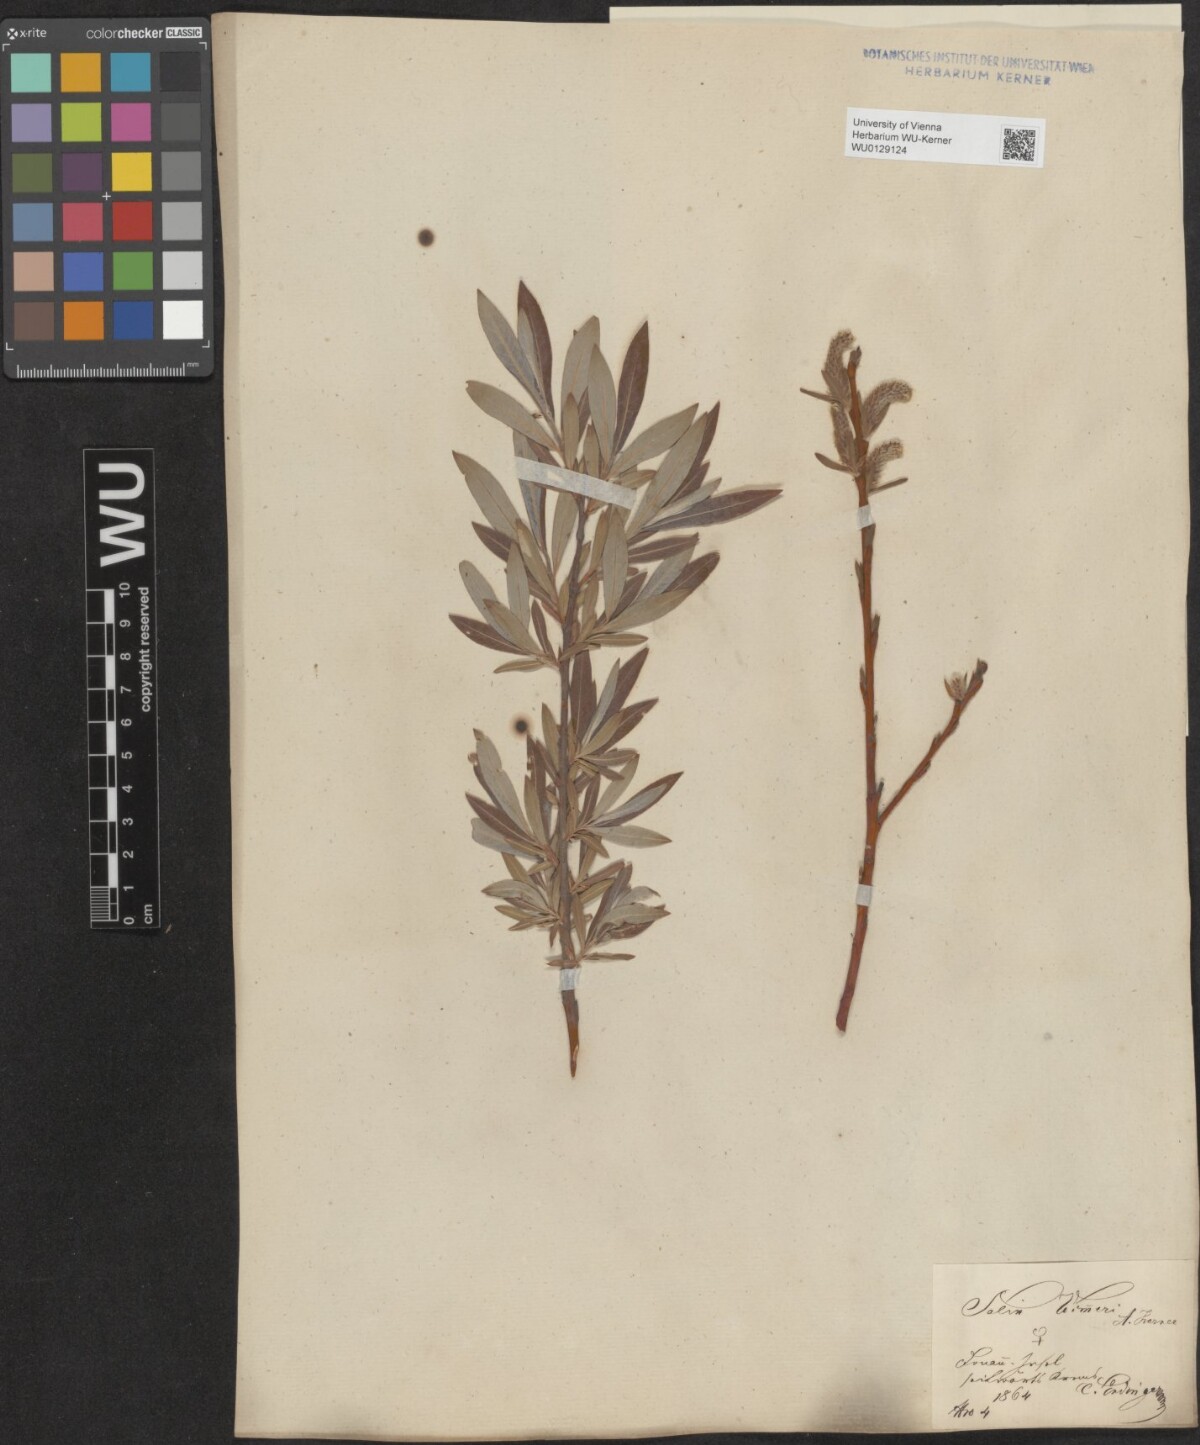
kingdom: Plantae
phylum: Tracheophyta
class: Magnoliopsida
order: Malpighiales
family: Salicaceae
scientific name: Salicaceae
